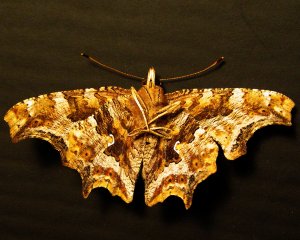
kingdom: Animalia
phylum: Arthropoda
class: Insecta
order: Lepidoptera
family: Nymphalidae
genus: Polygonia
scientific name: Polygonia comma
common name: Eastern Comma
